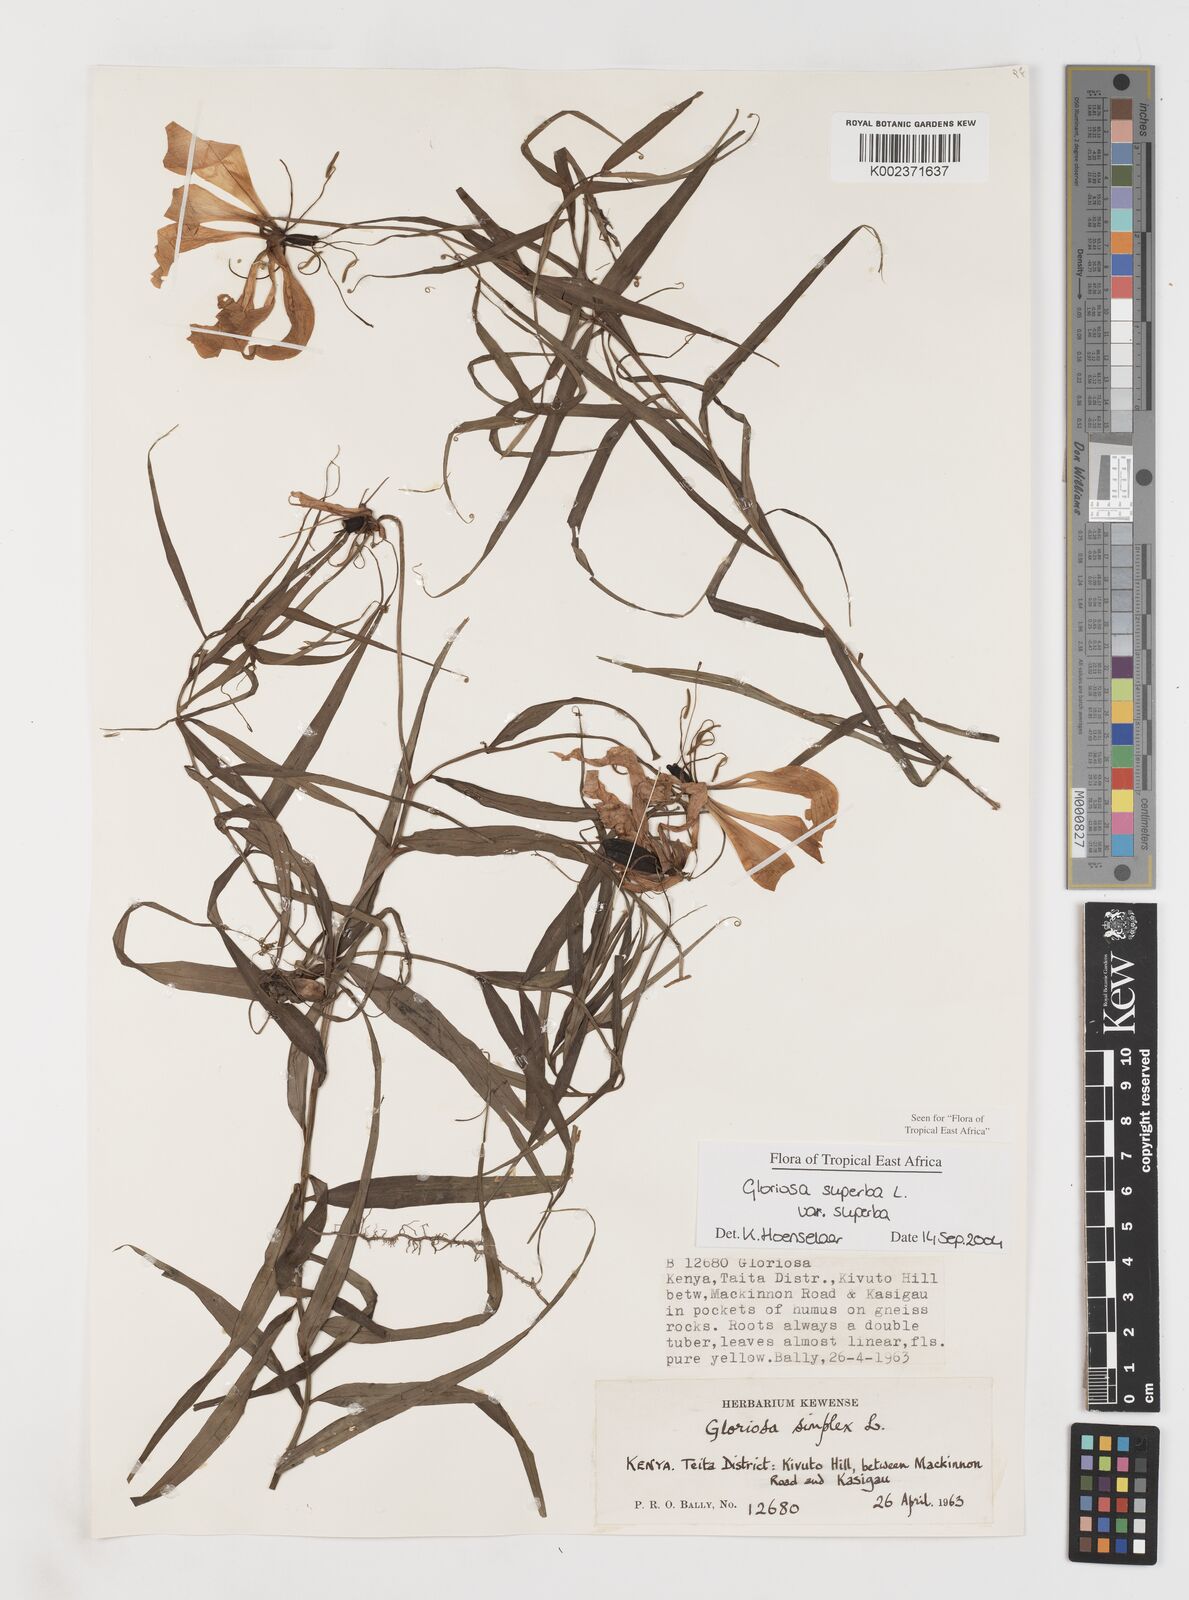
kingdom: Plantae
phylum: Tracheophyta
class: Liliopsida
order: Liliales
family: Colchicaceae
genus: Gloriosa
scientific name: Gloriosa simplex
